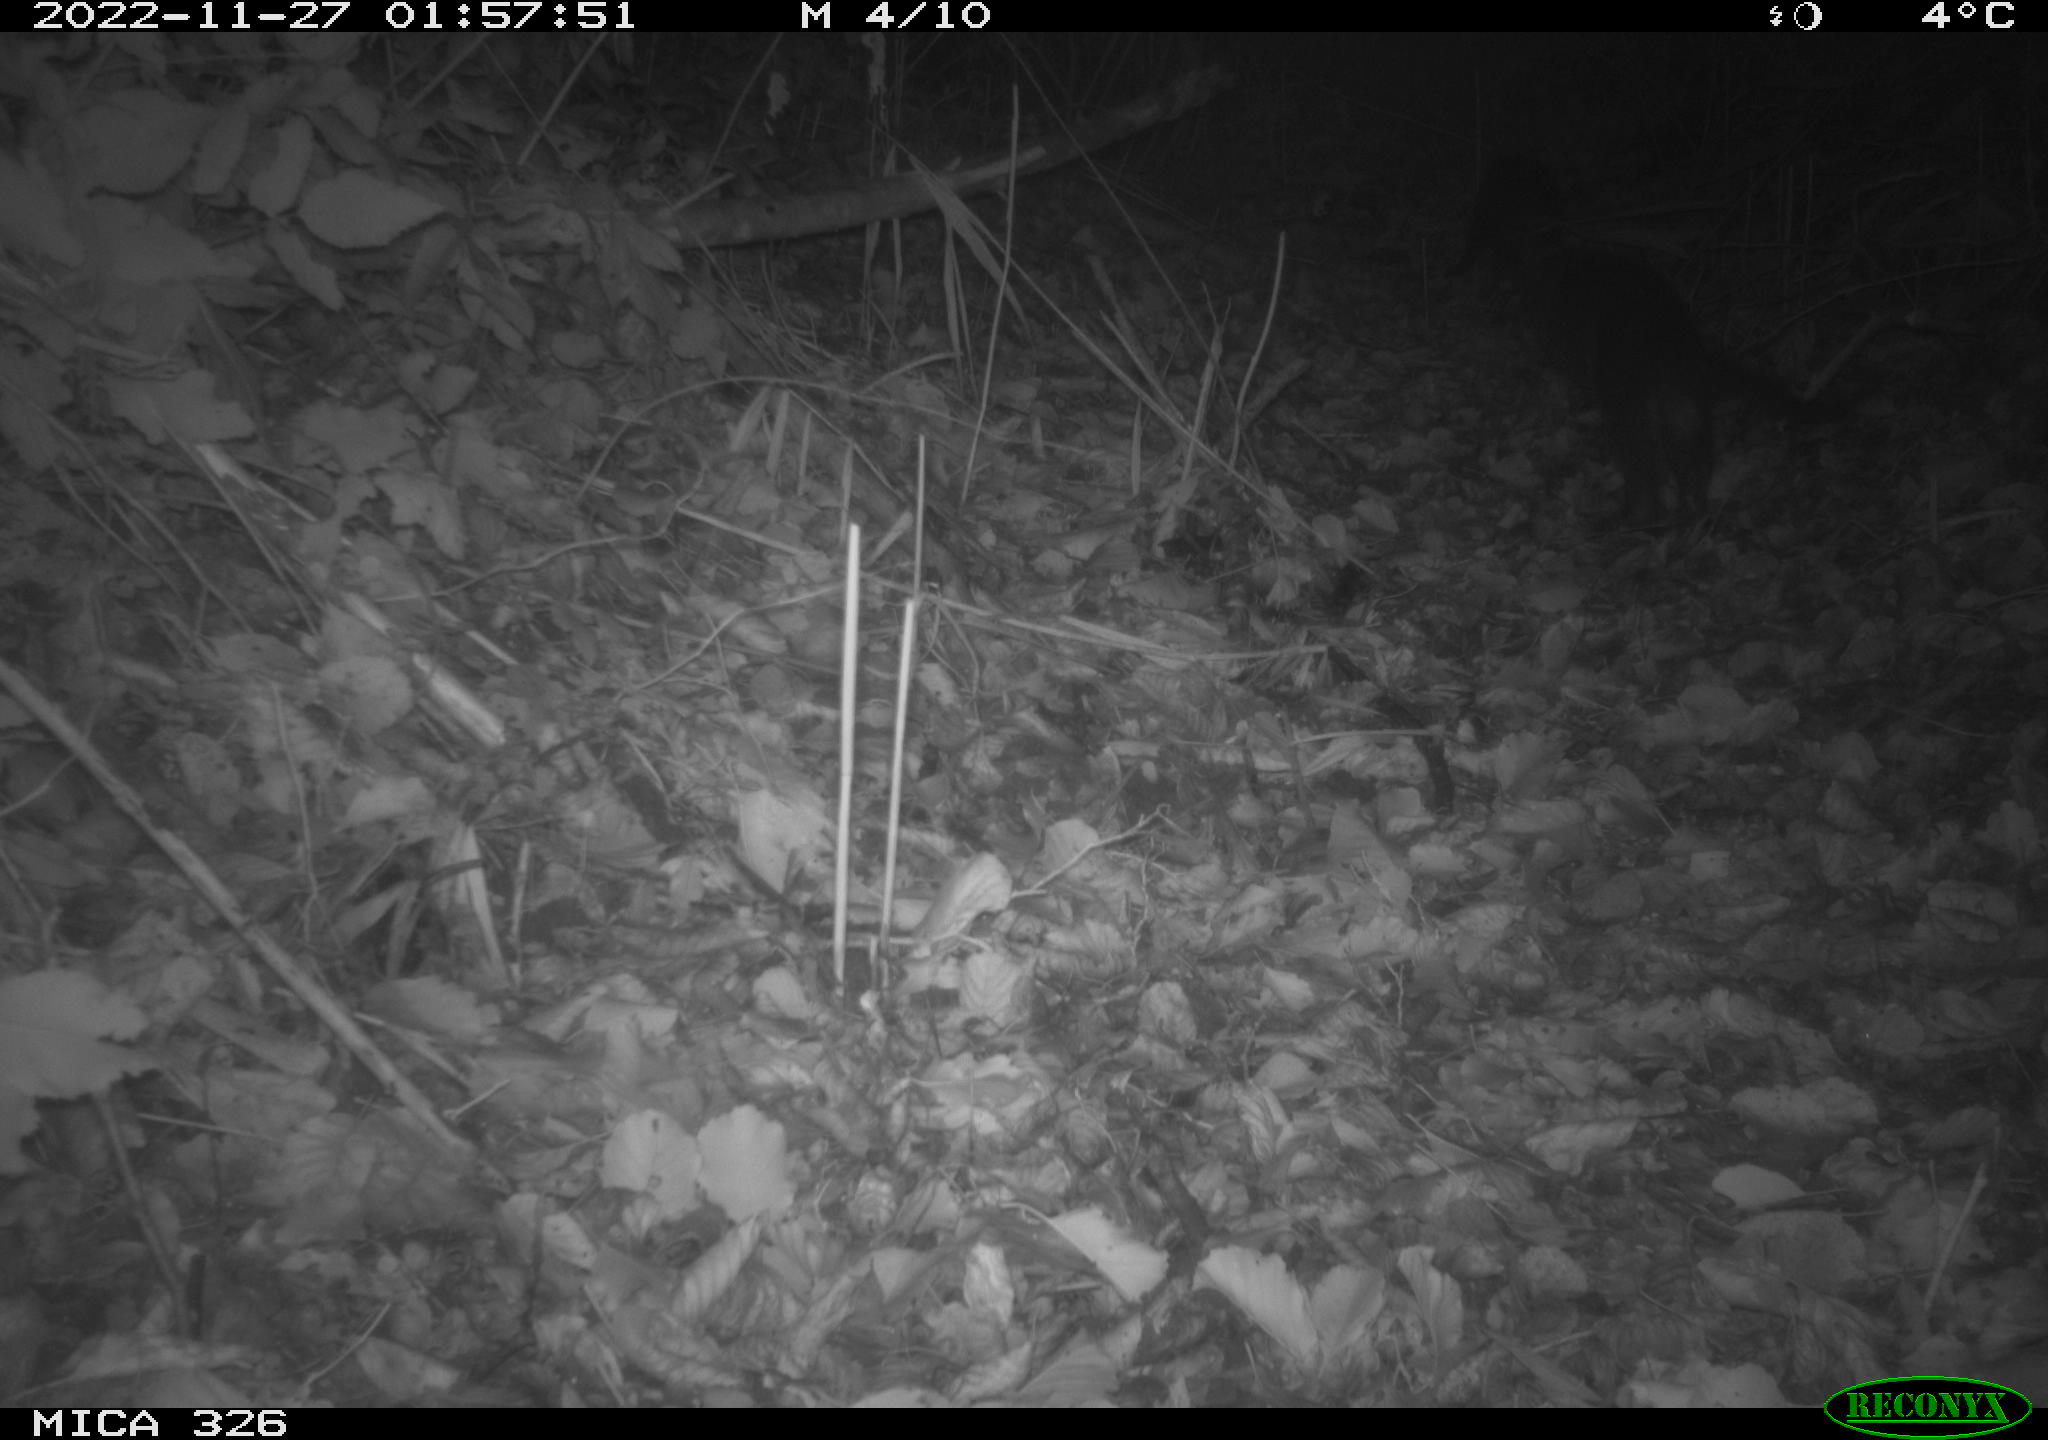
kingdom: Animalia
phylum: Chordata
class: Mammalia
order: Carnivora
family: Mustelidae
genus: Lutra
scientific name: Lutra lutra
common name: European otter
